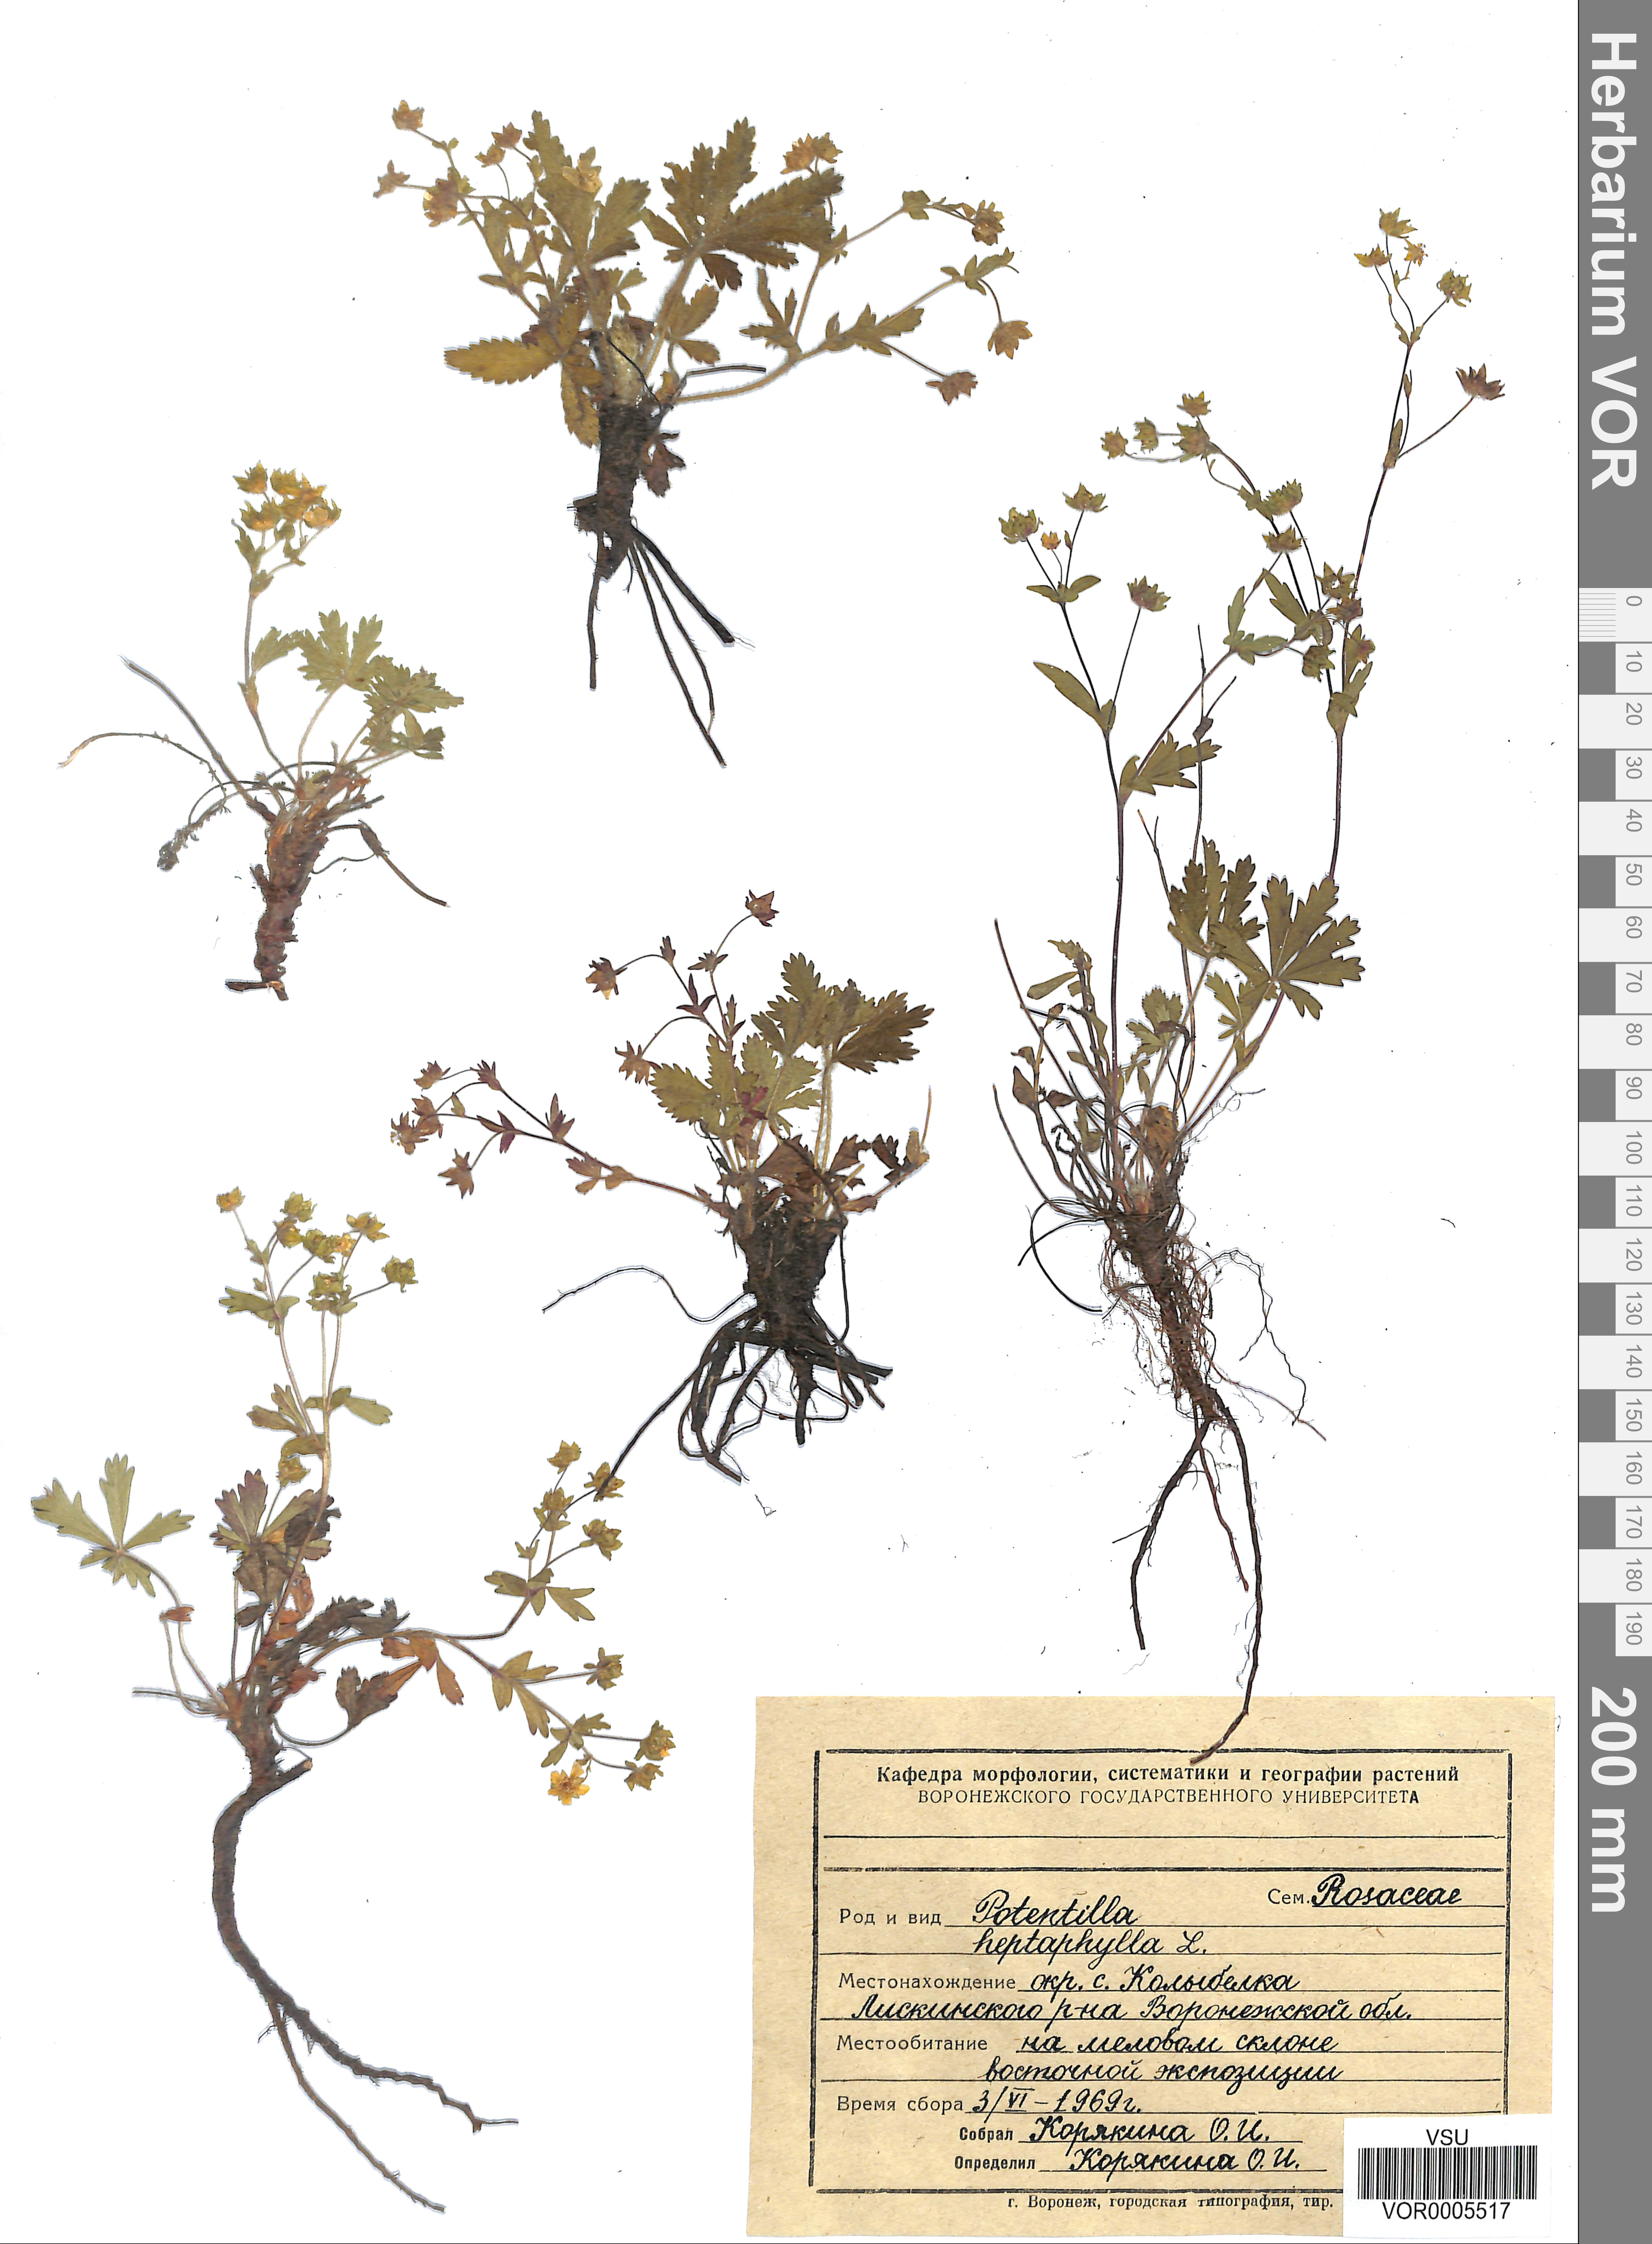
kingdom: Plantae
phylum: Tracheophyta
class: Magnoliopsida
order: Rosales
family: Rosaceae
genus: Potentilla
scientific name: Potentilla heptaphylla
